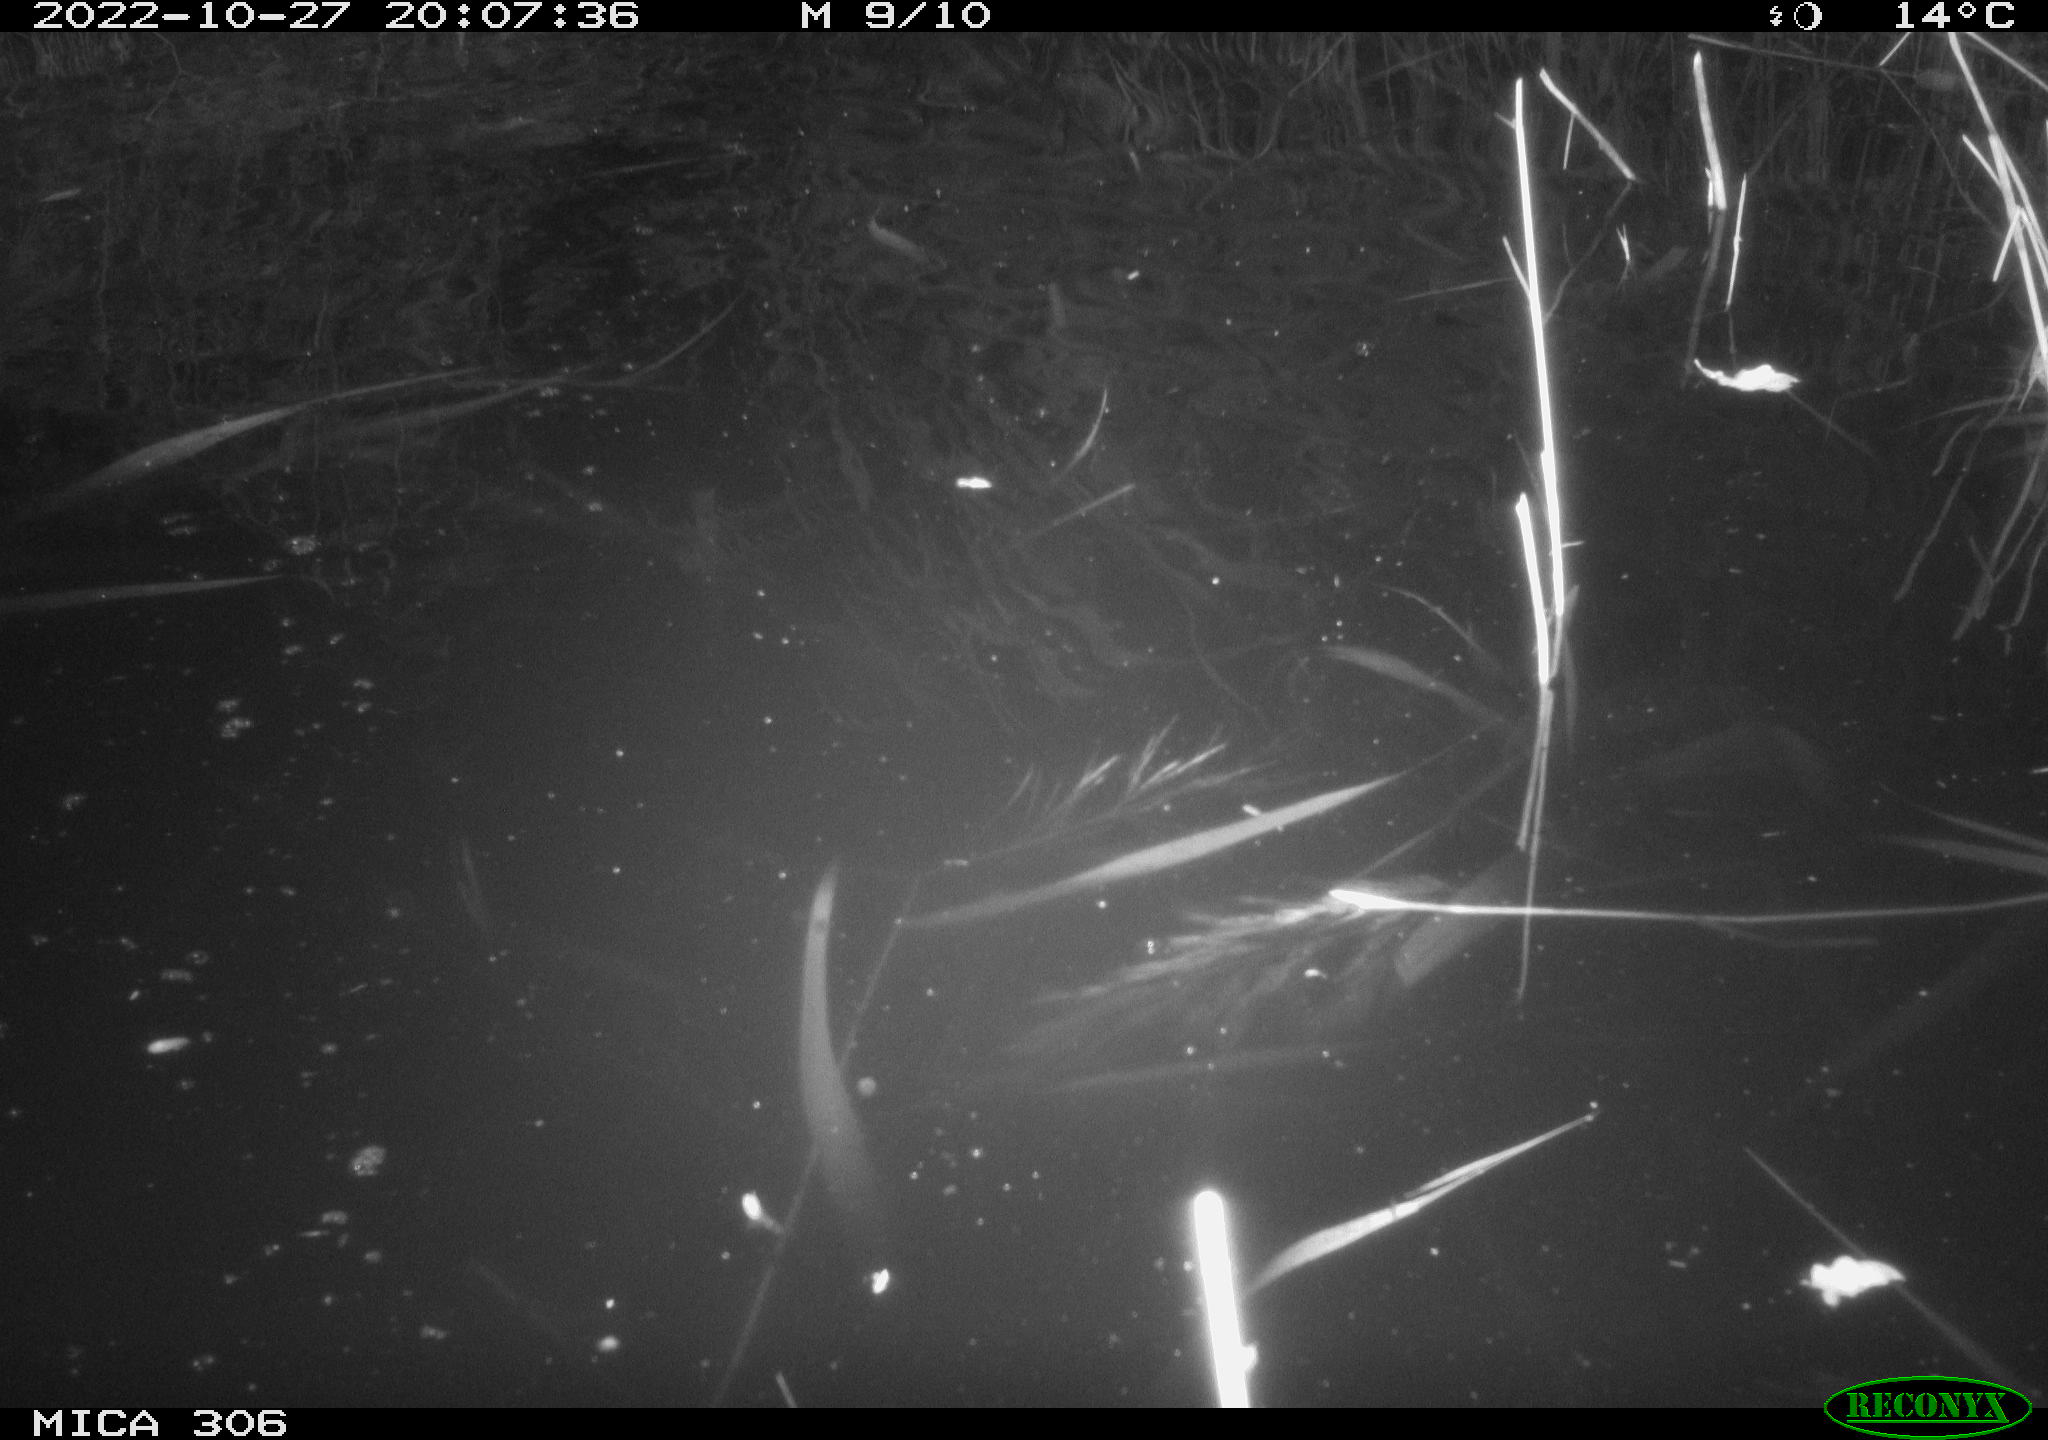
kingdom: Animalia
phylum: Chordata
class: Mammalia
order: Rodentia
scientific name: Rodentia
